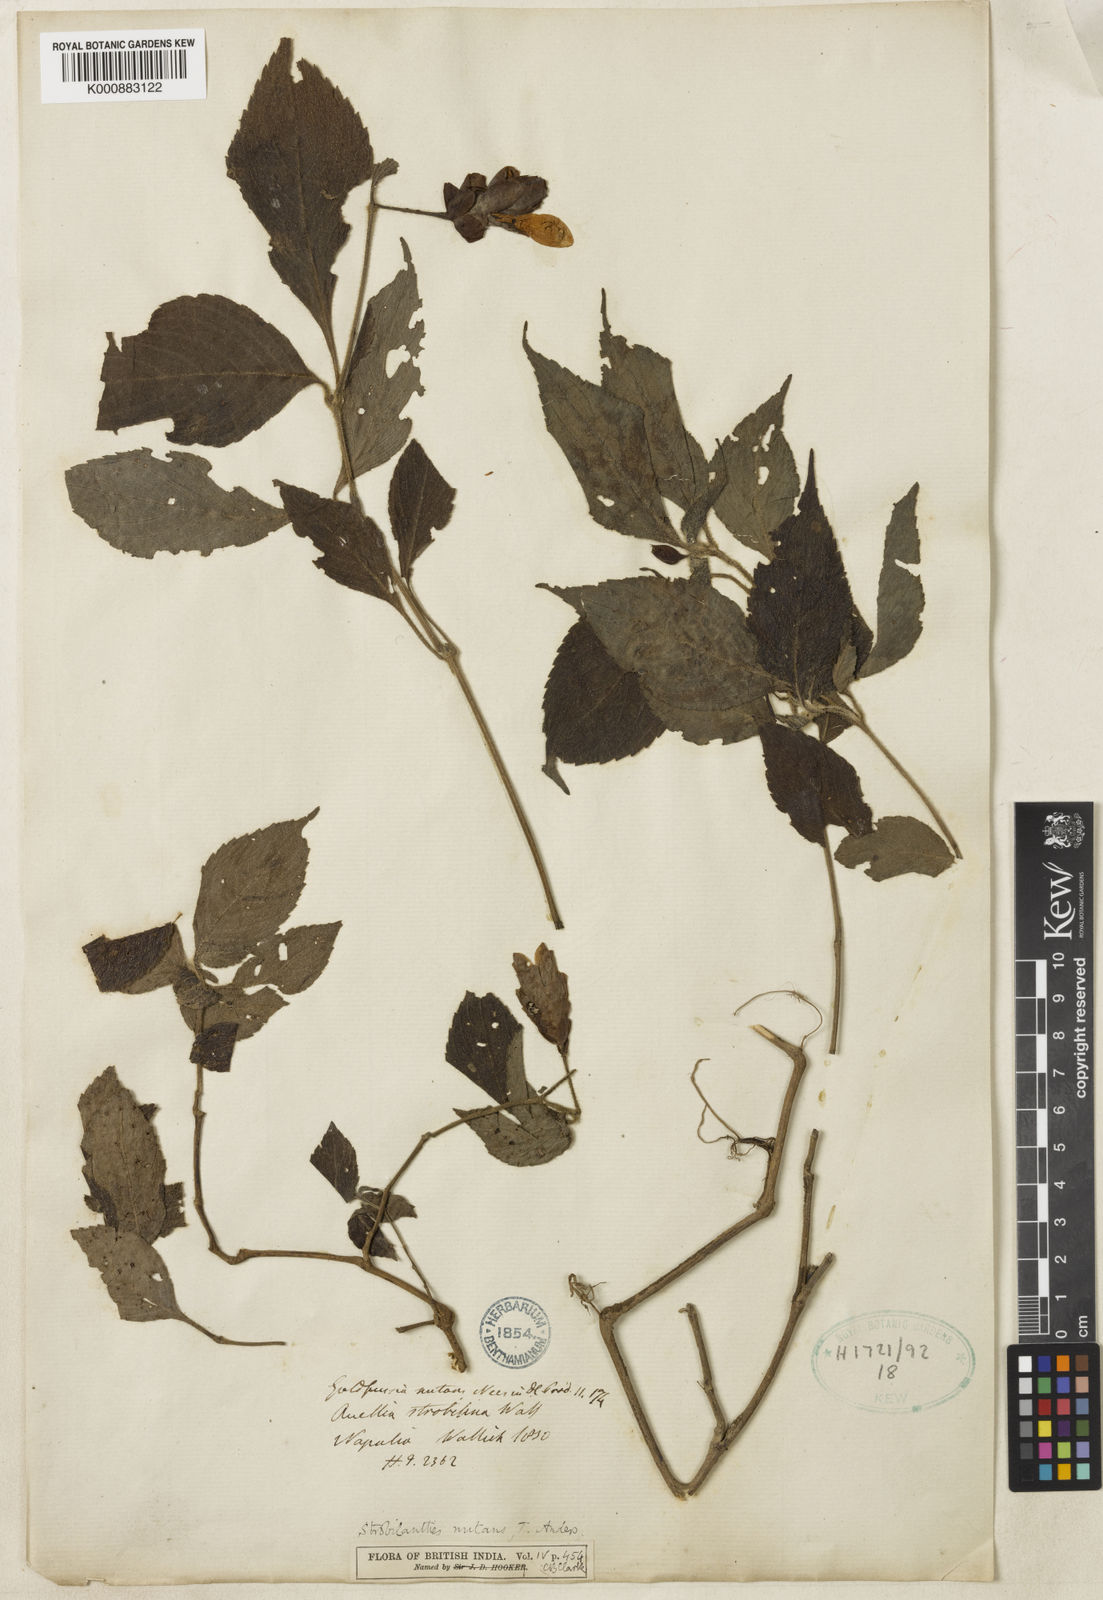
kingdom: Plantae
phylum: Tracheophyta
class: Magnoliopsida
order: Lamiales
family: Acanthaceae
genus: Strobilanthes
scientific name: Strobilanthes nutans
